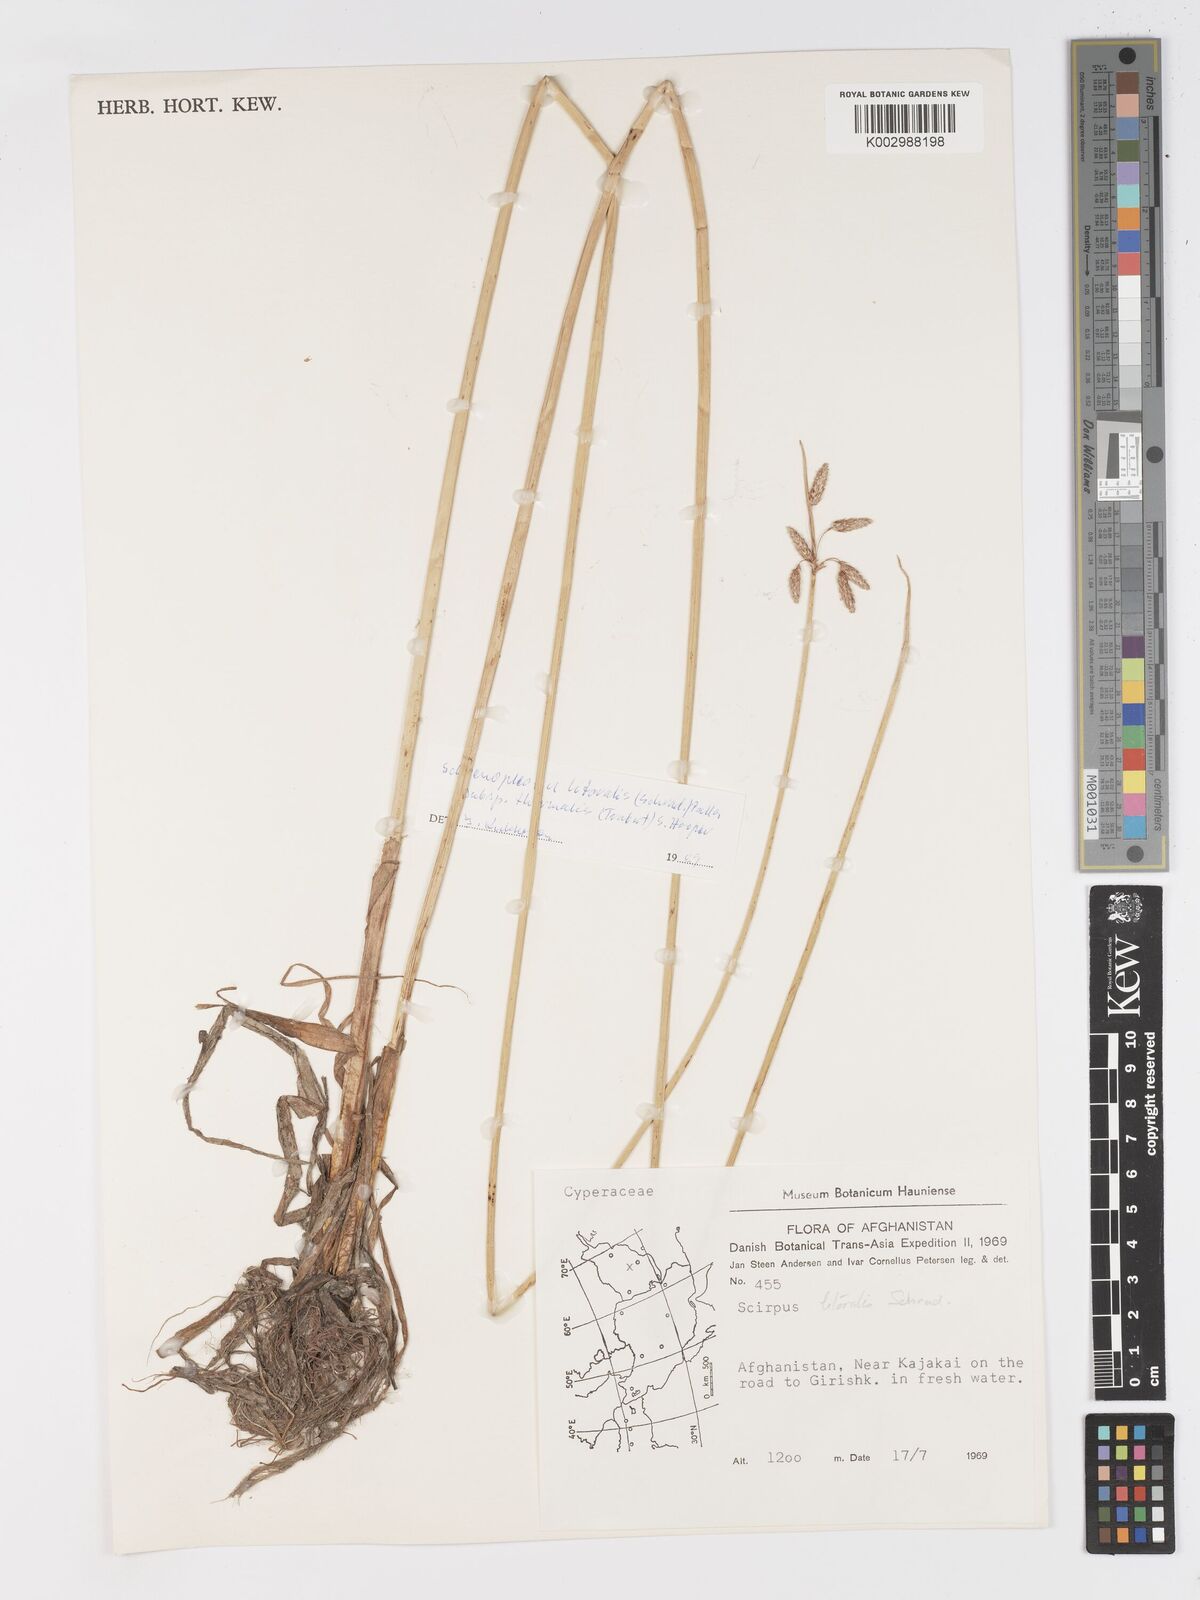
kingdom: Plantae
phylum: Tracheophyta
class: Liliopsida
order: Poales
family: Cyperaceae
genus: Schoenoplectus
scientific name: Schoenoplectus litoralis
